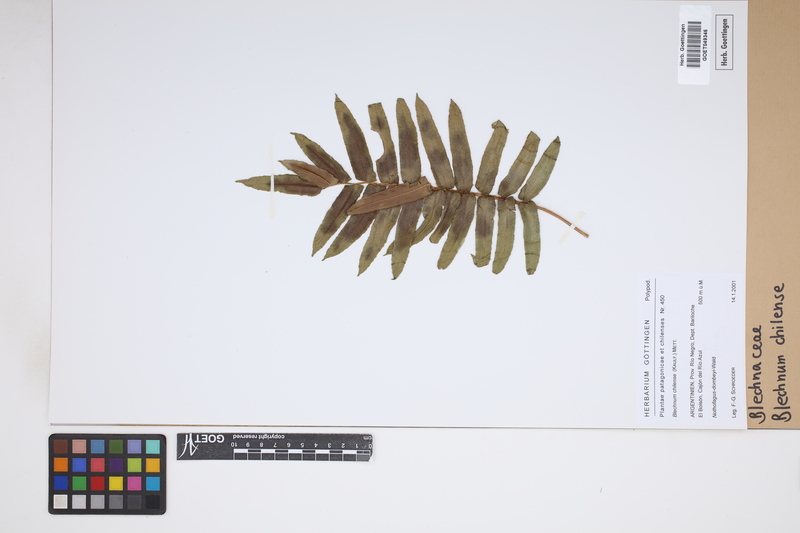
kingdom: Plantae
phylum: Tracheophyta
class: Polypodiopsida
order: Polypodiales
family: Blechnaceae
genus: Parablechnum
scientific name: Parablechnum chilense
